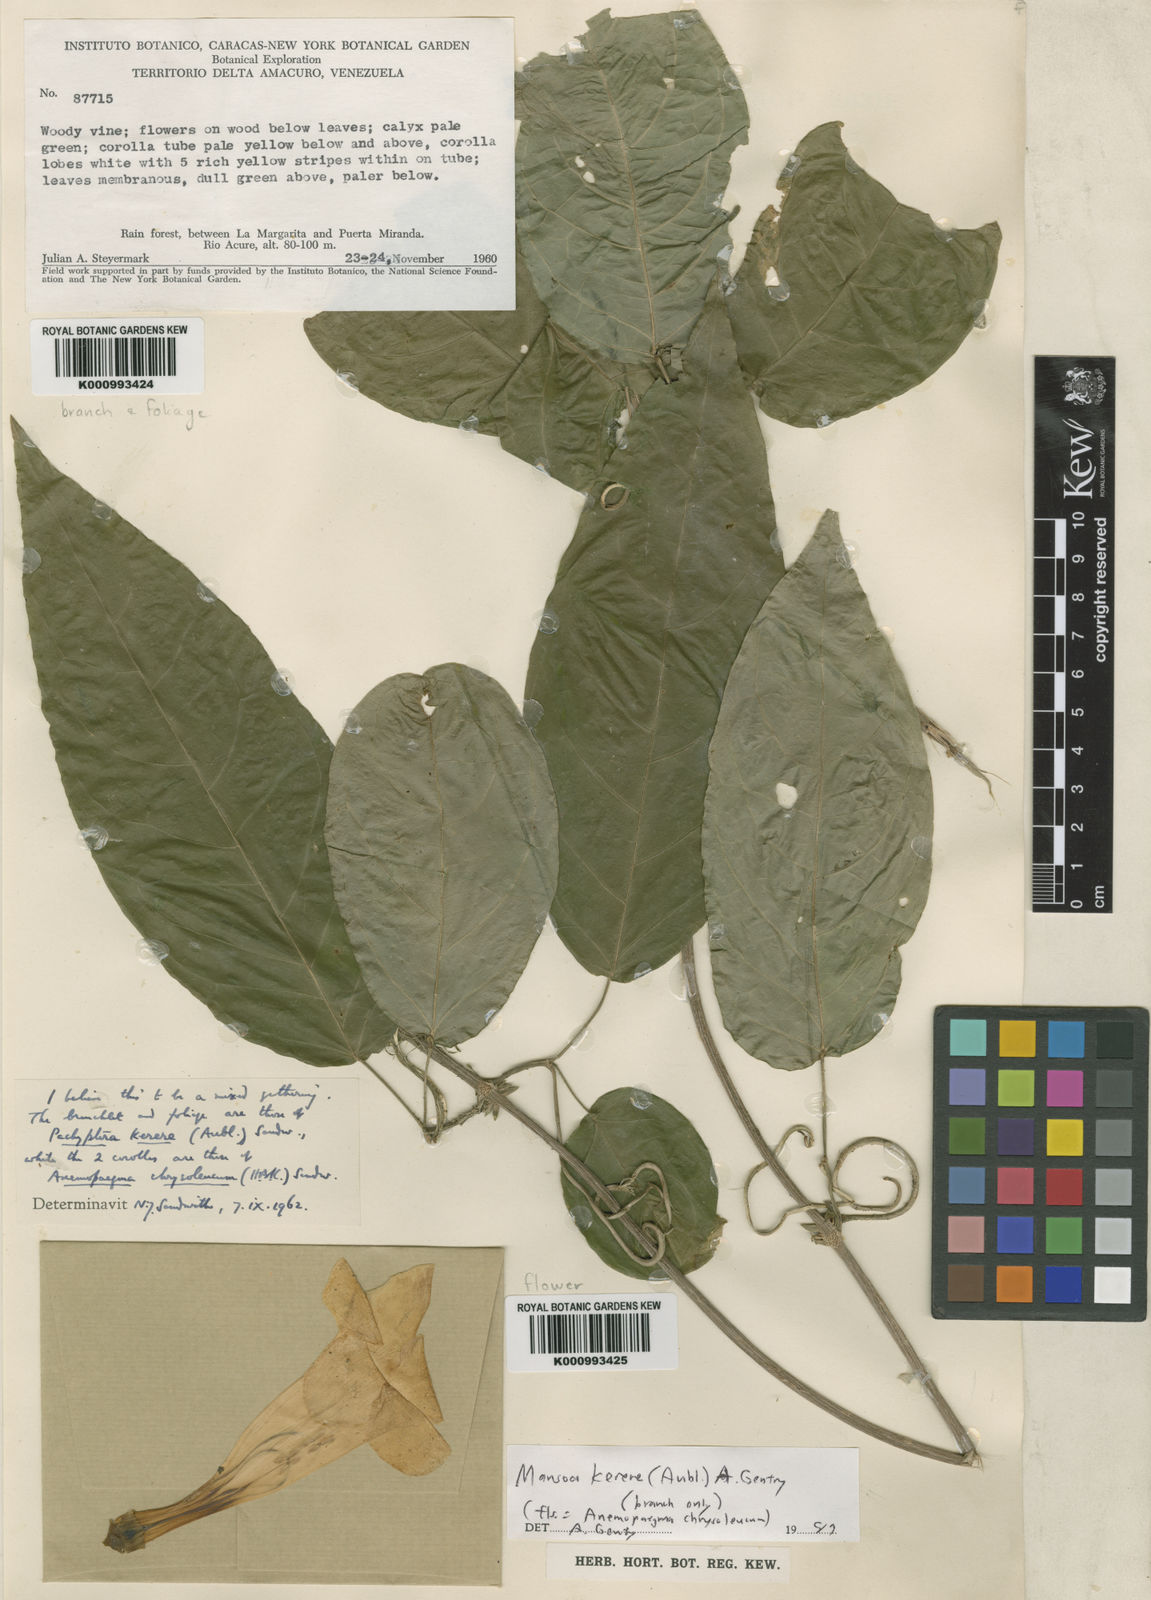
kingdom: Plantae
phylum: Tracheophyta
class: Magnoliopsida
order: Lamiales
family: Bignoniaceae
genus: Pachyptera
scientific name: Pachyptera kerere
